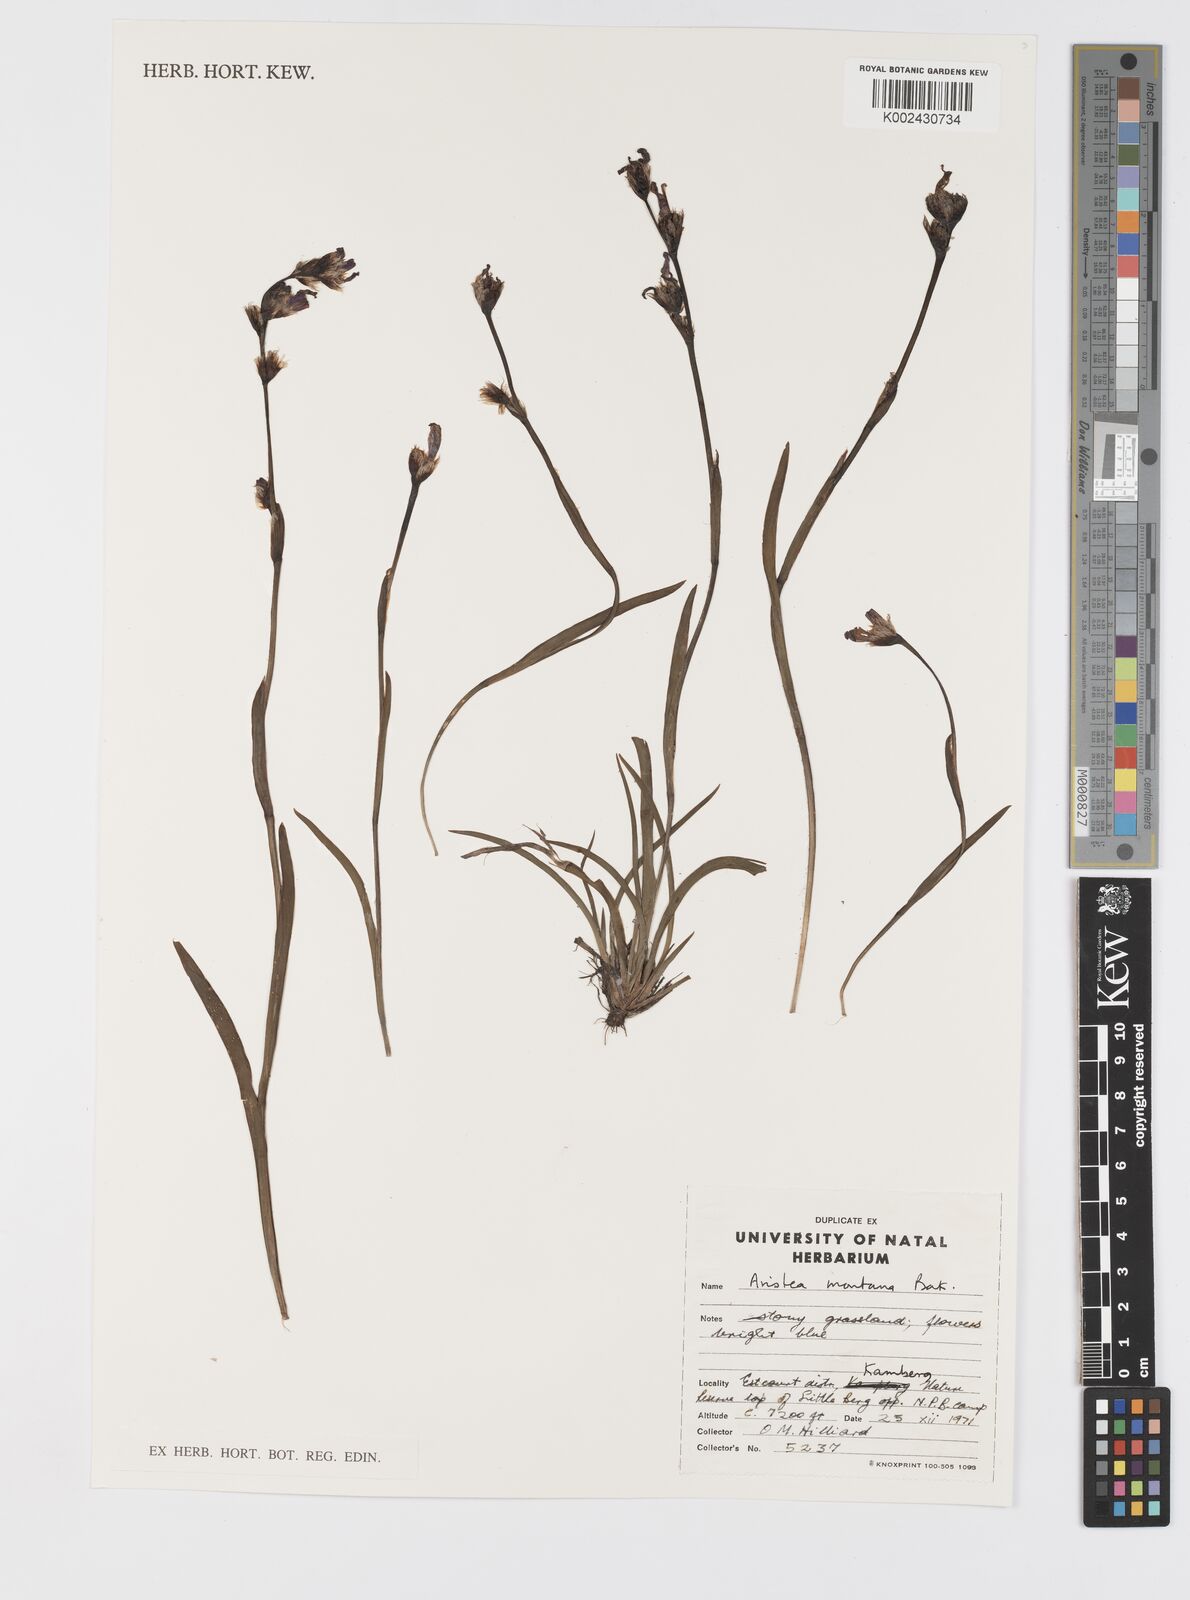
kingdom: Plantae
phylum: Tracheophyta
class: Liliopsida
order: Asparagales
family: Iridaceae
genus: Aristea
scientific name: Aristea montana
